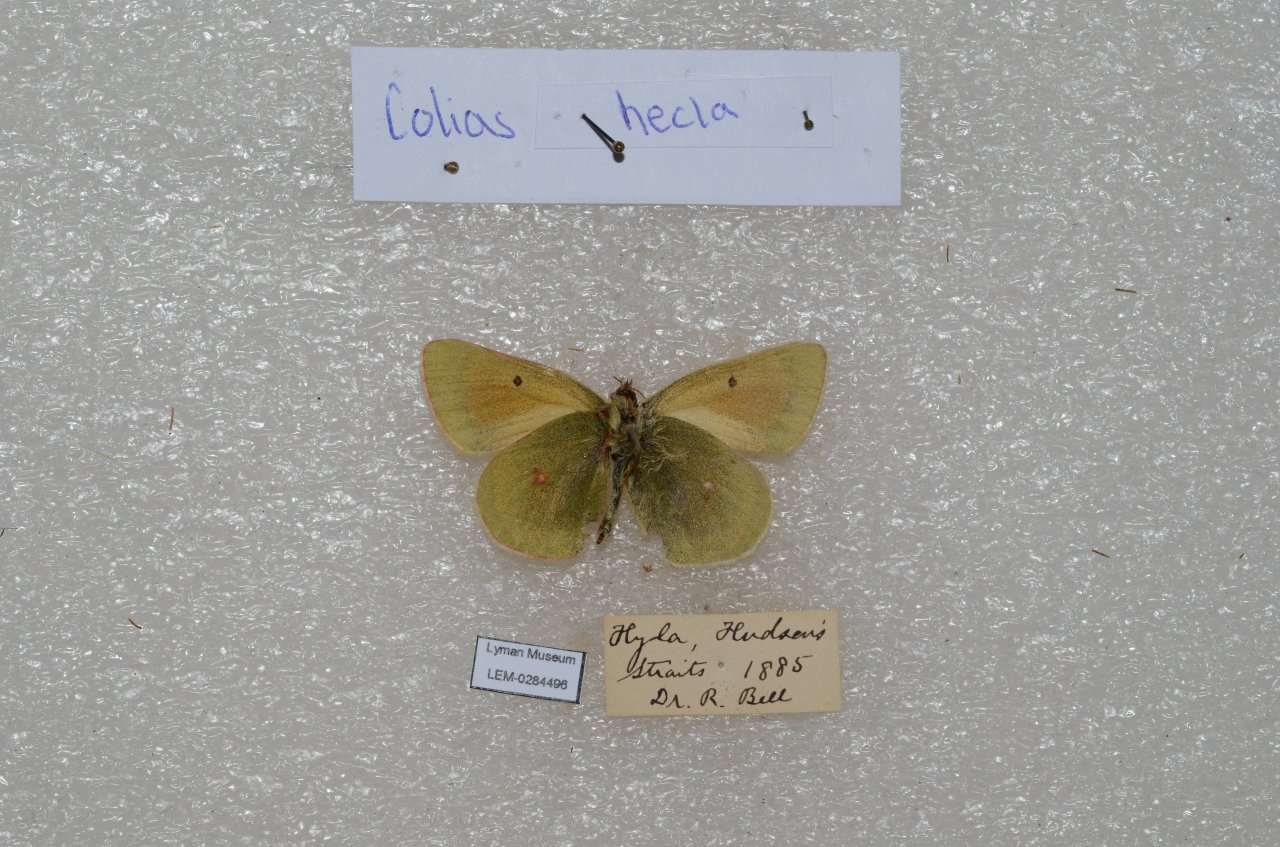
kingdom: Animalia
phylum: Arthropoda
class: Insecta
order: Lepidoptera
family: Pieridae
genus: Colias
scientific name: Colias hecla
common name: Hecla Sulphur
